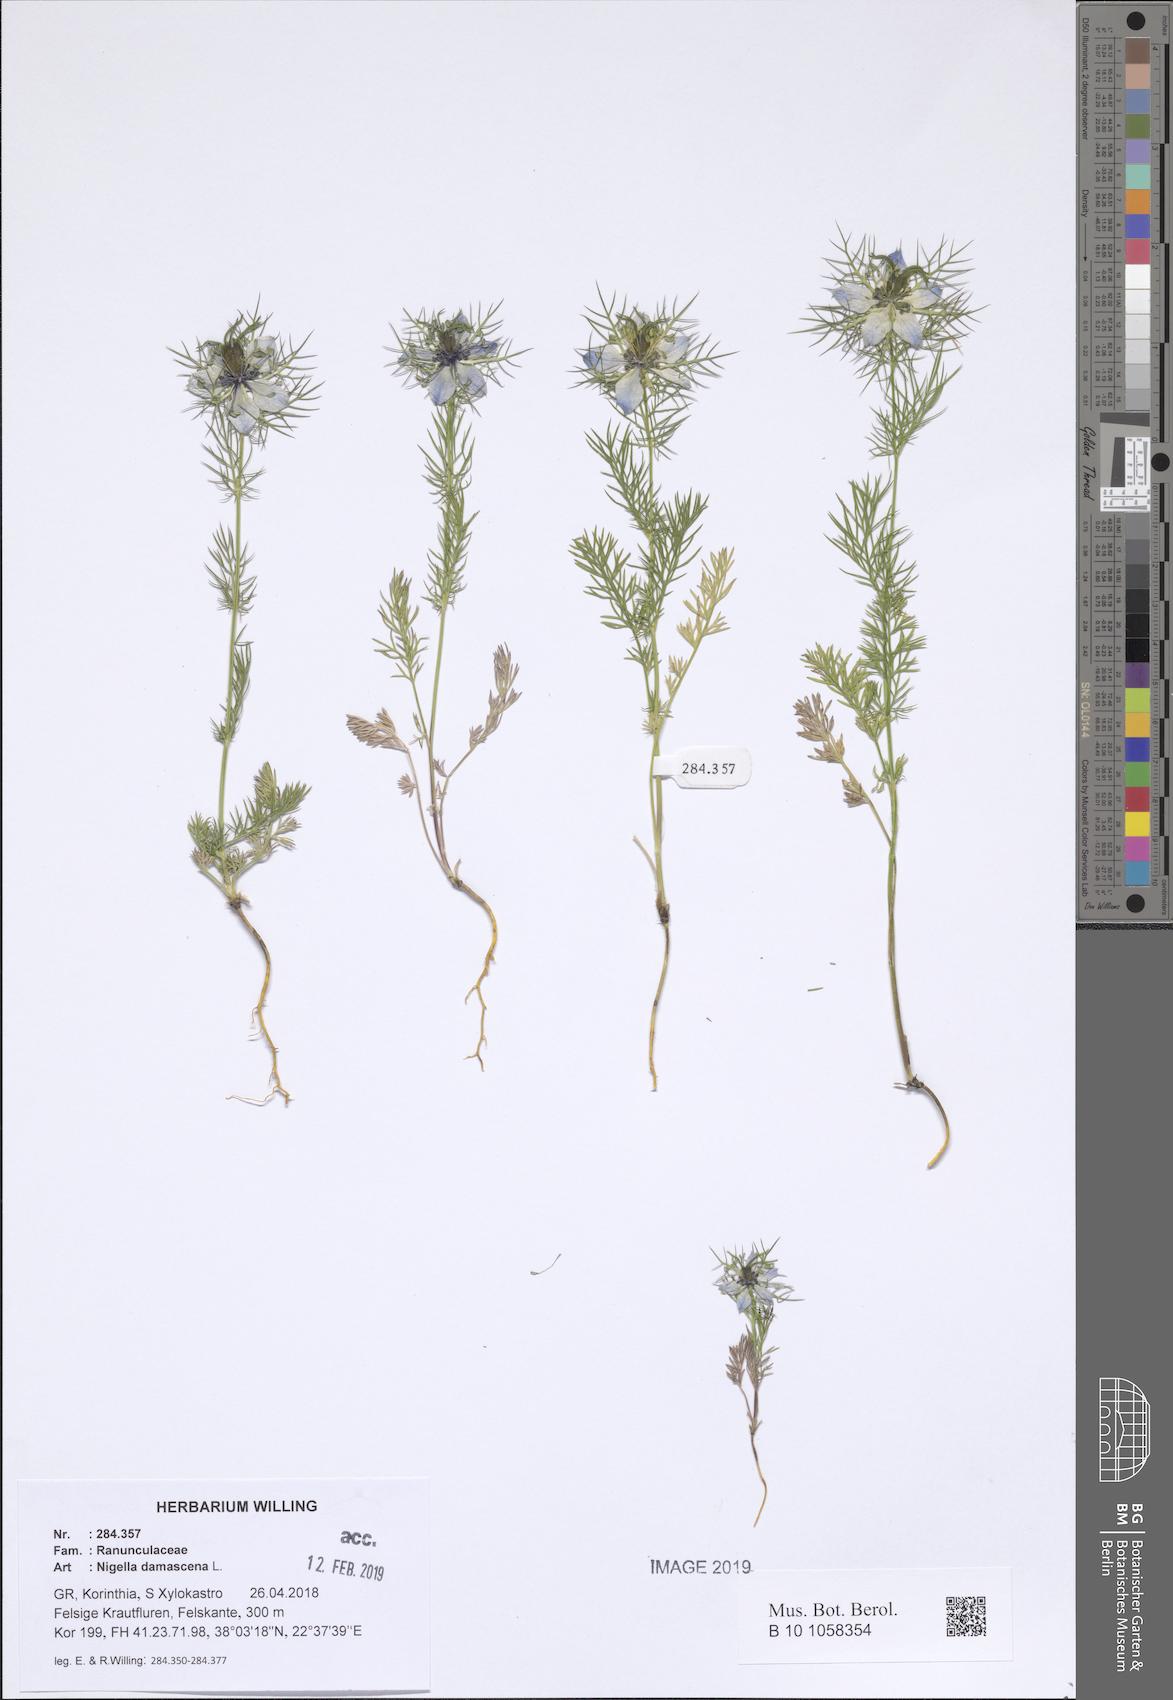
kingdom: Plantae
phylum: Tracheophyta
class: Magnoliopsida
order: Ranunculales
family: Ranunculaceae
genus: Nigella
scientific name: Nigella damascena
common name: Love-in-a-mist
